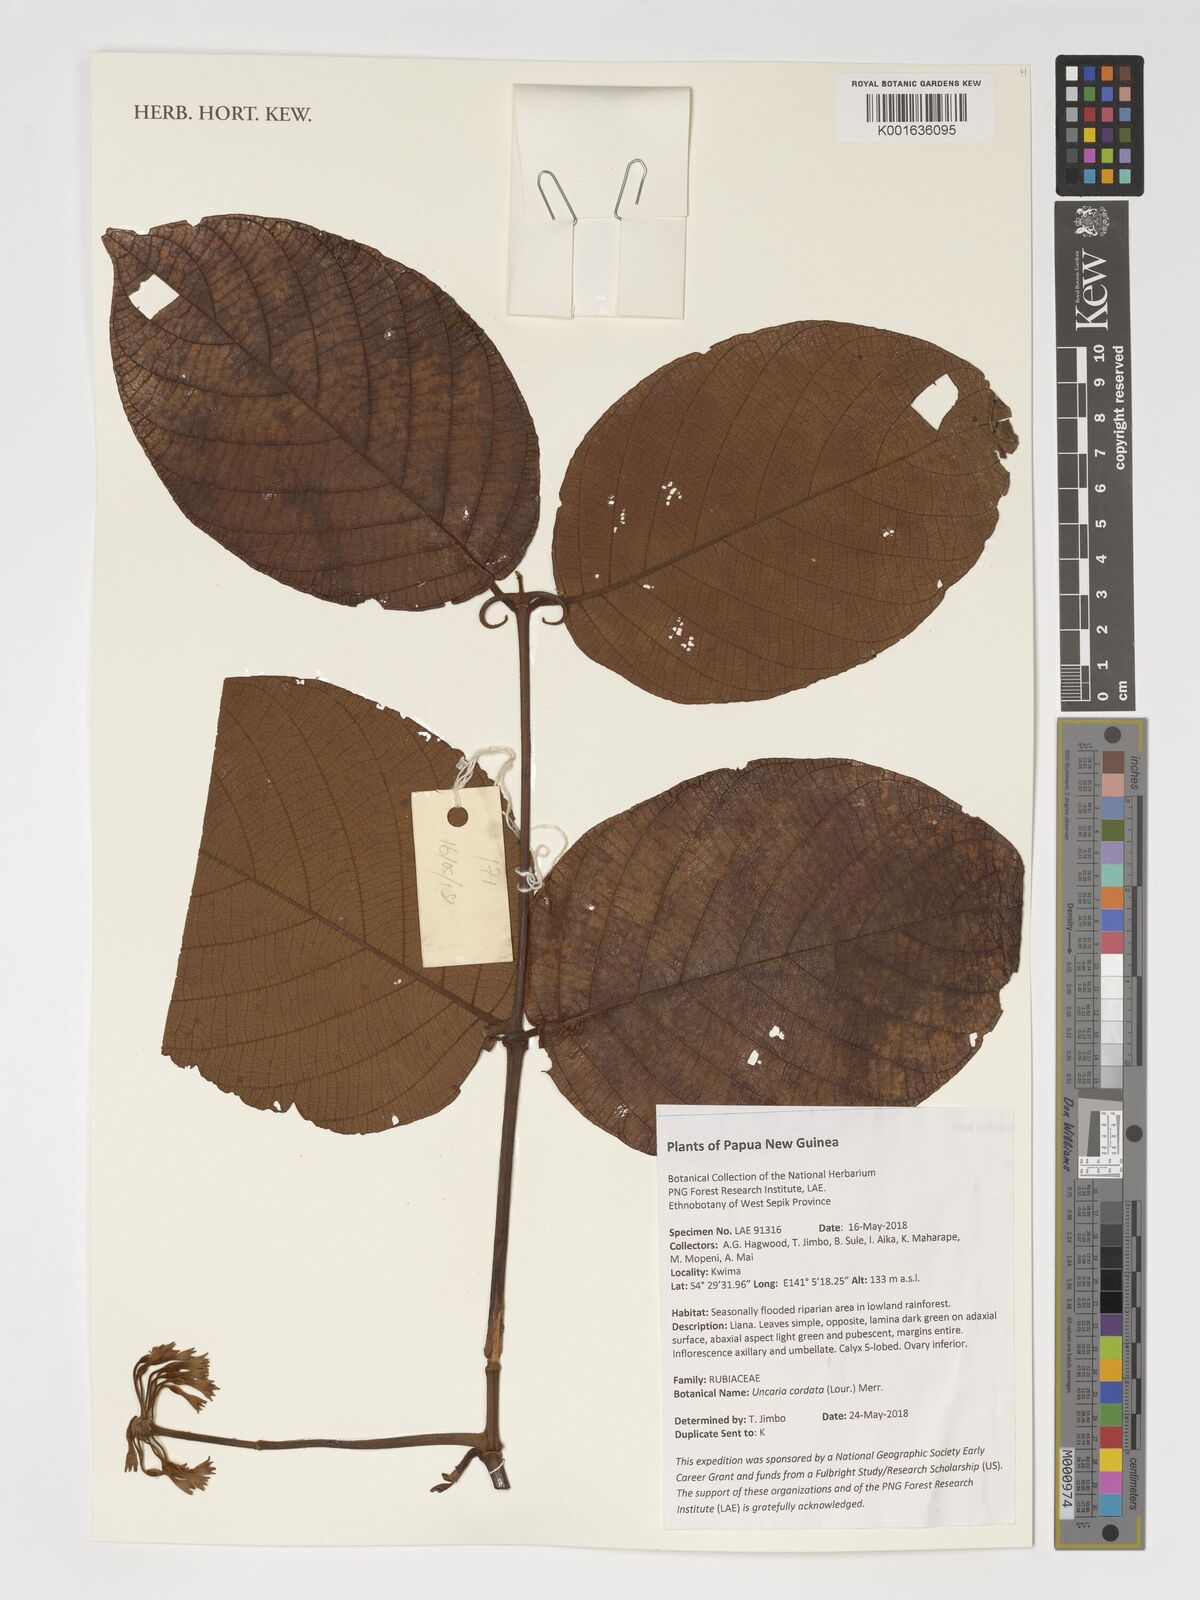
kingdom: Plantae
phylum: Tracheophyta
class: Magnoliopsida
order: Gentianales
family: Rubiaceae
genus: Uncaria
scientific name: Uncaria cordata
